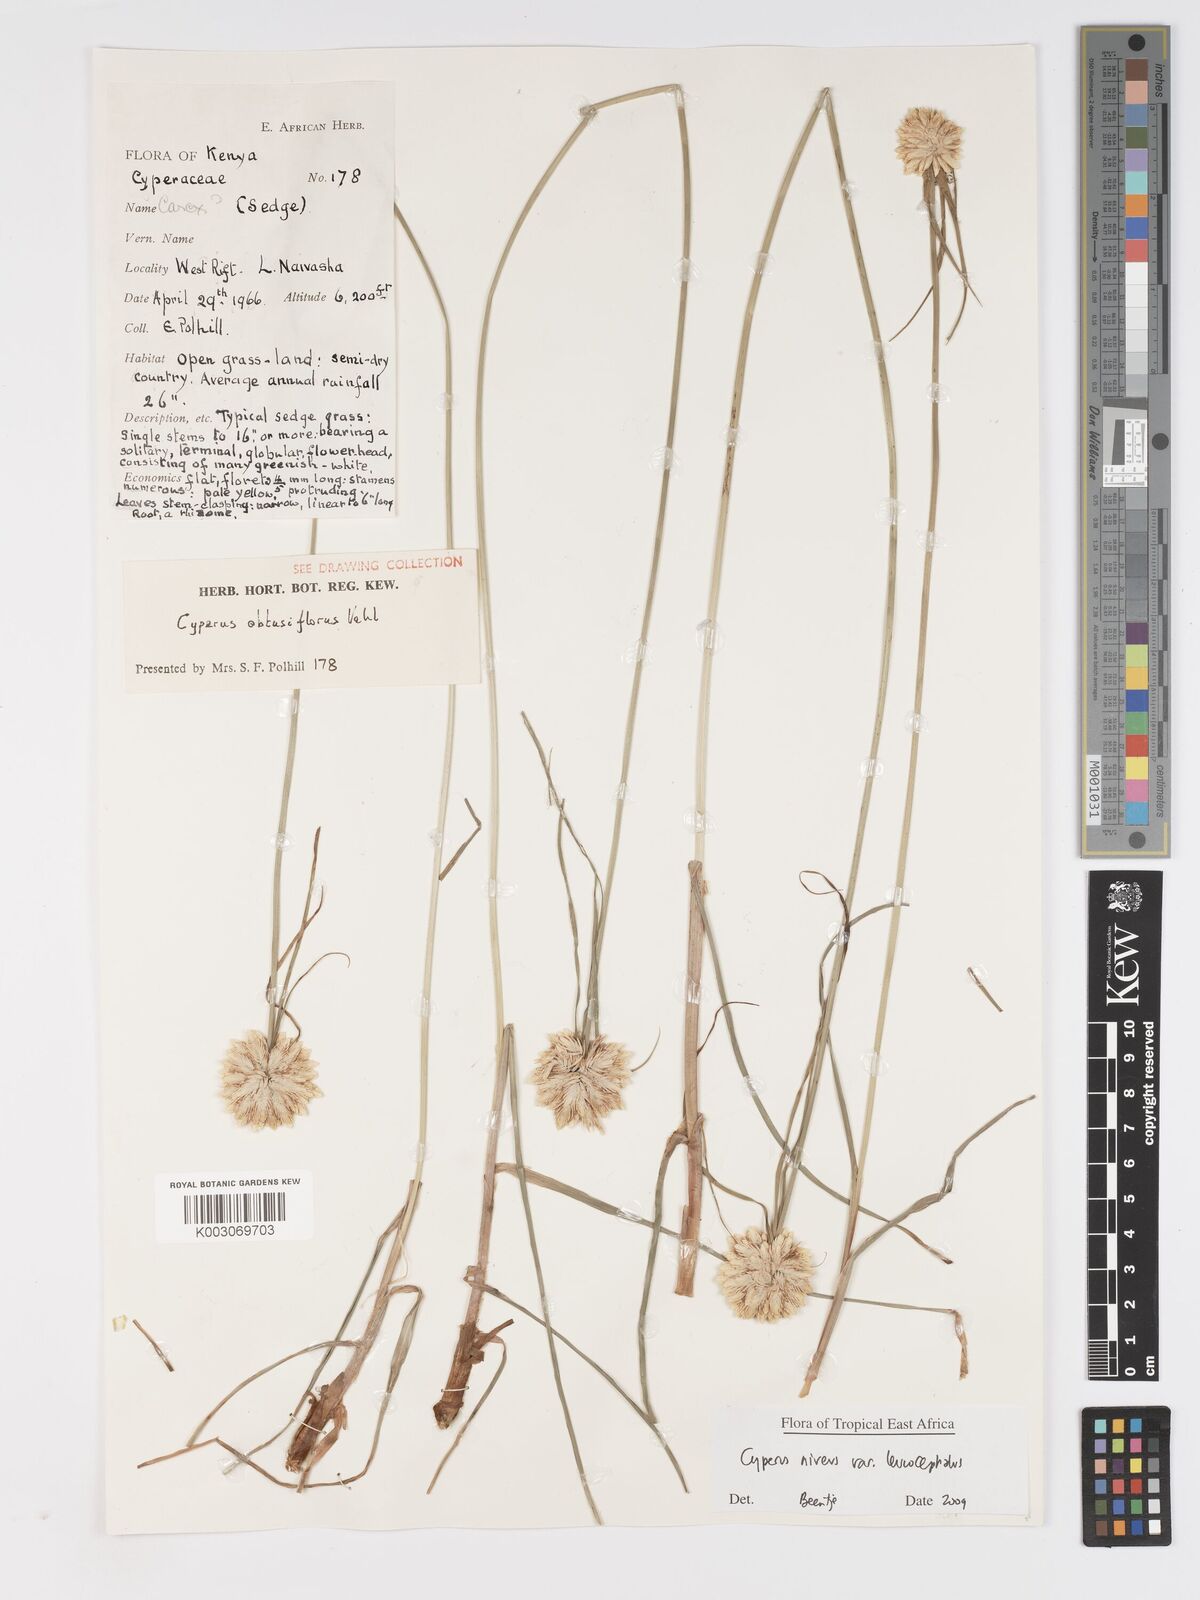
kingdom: Plantae
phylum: Tracheophyta
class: Liliopsida
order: Poales
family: Cyperaceae
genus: Cyperus
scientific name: Cyperus niveus
